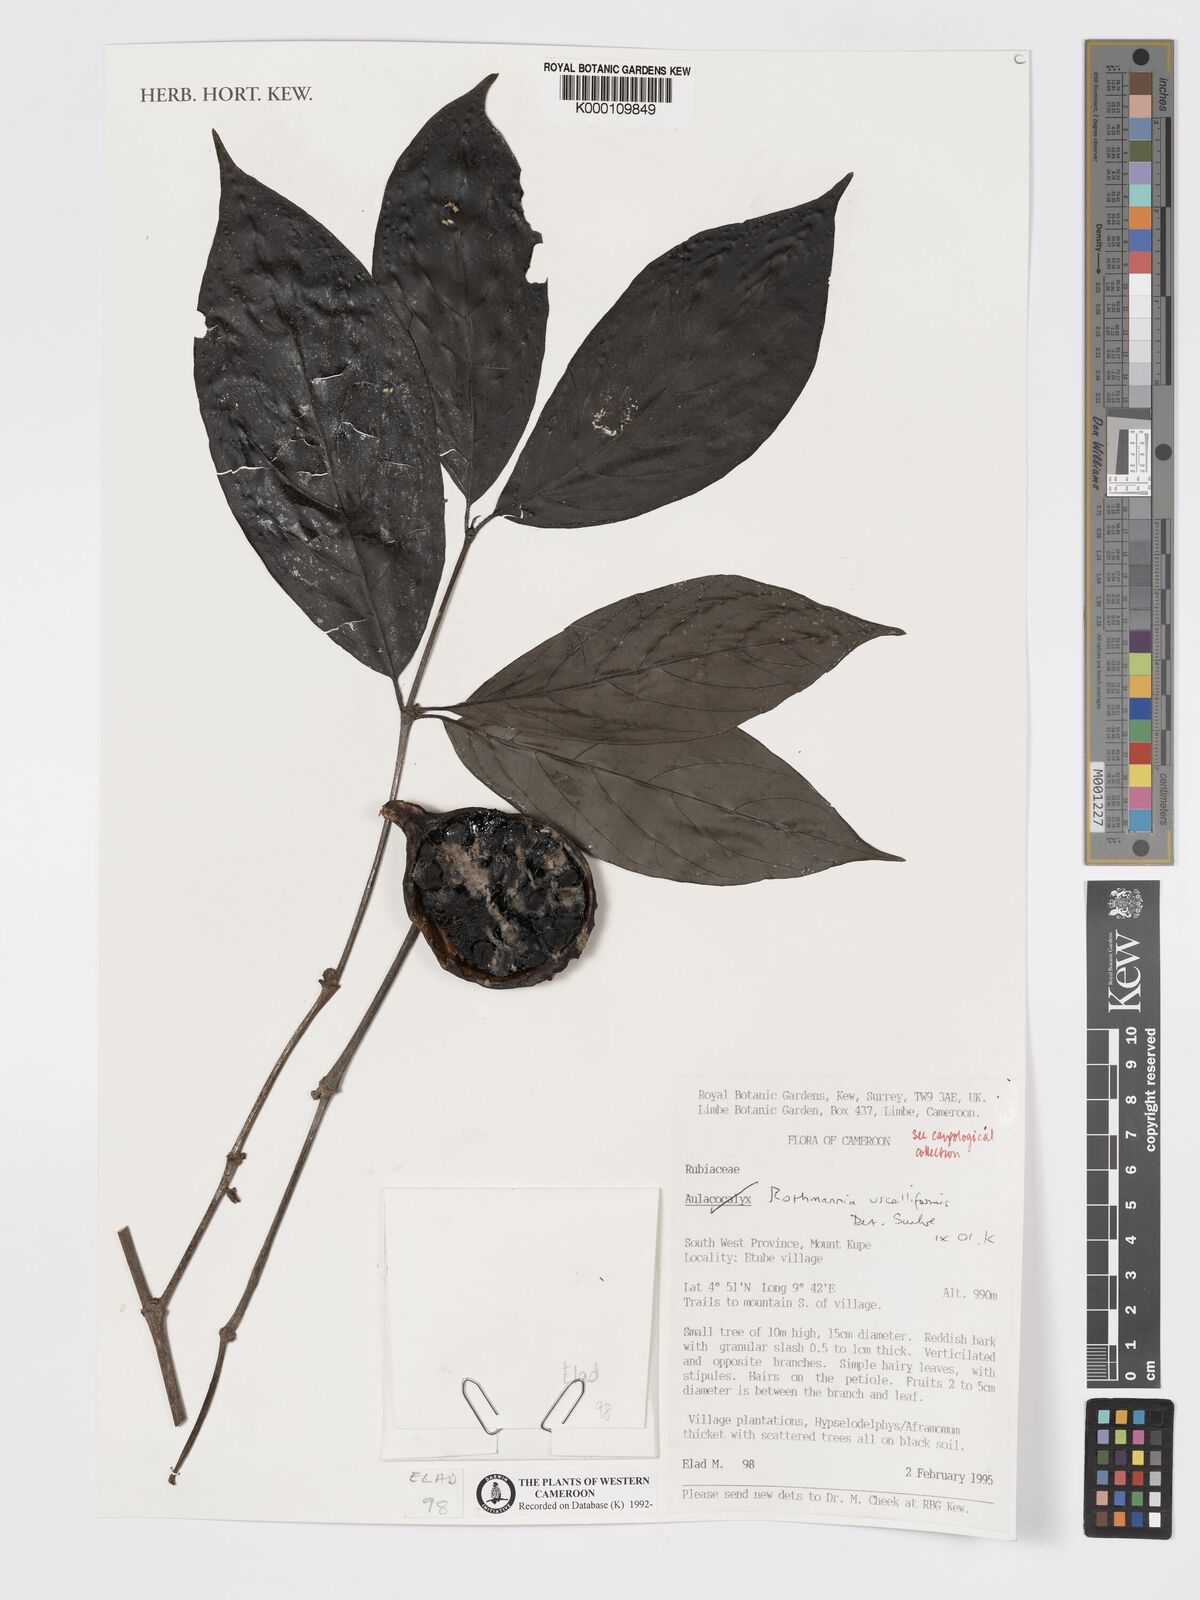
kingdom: Plantae
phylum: Tracheophyta
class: Magnoliopsida
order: Gentianales
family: Rubiaceae
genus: Rothmannia
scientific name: Rothmannia urcelliformis
